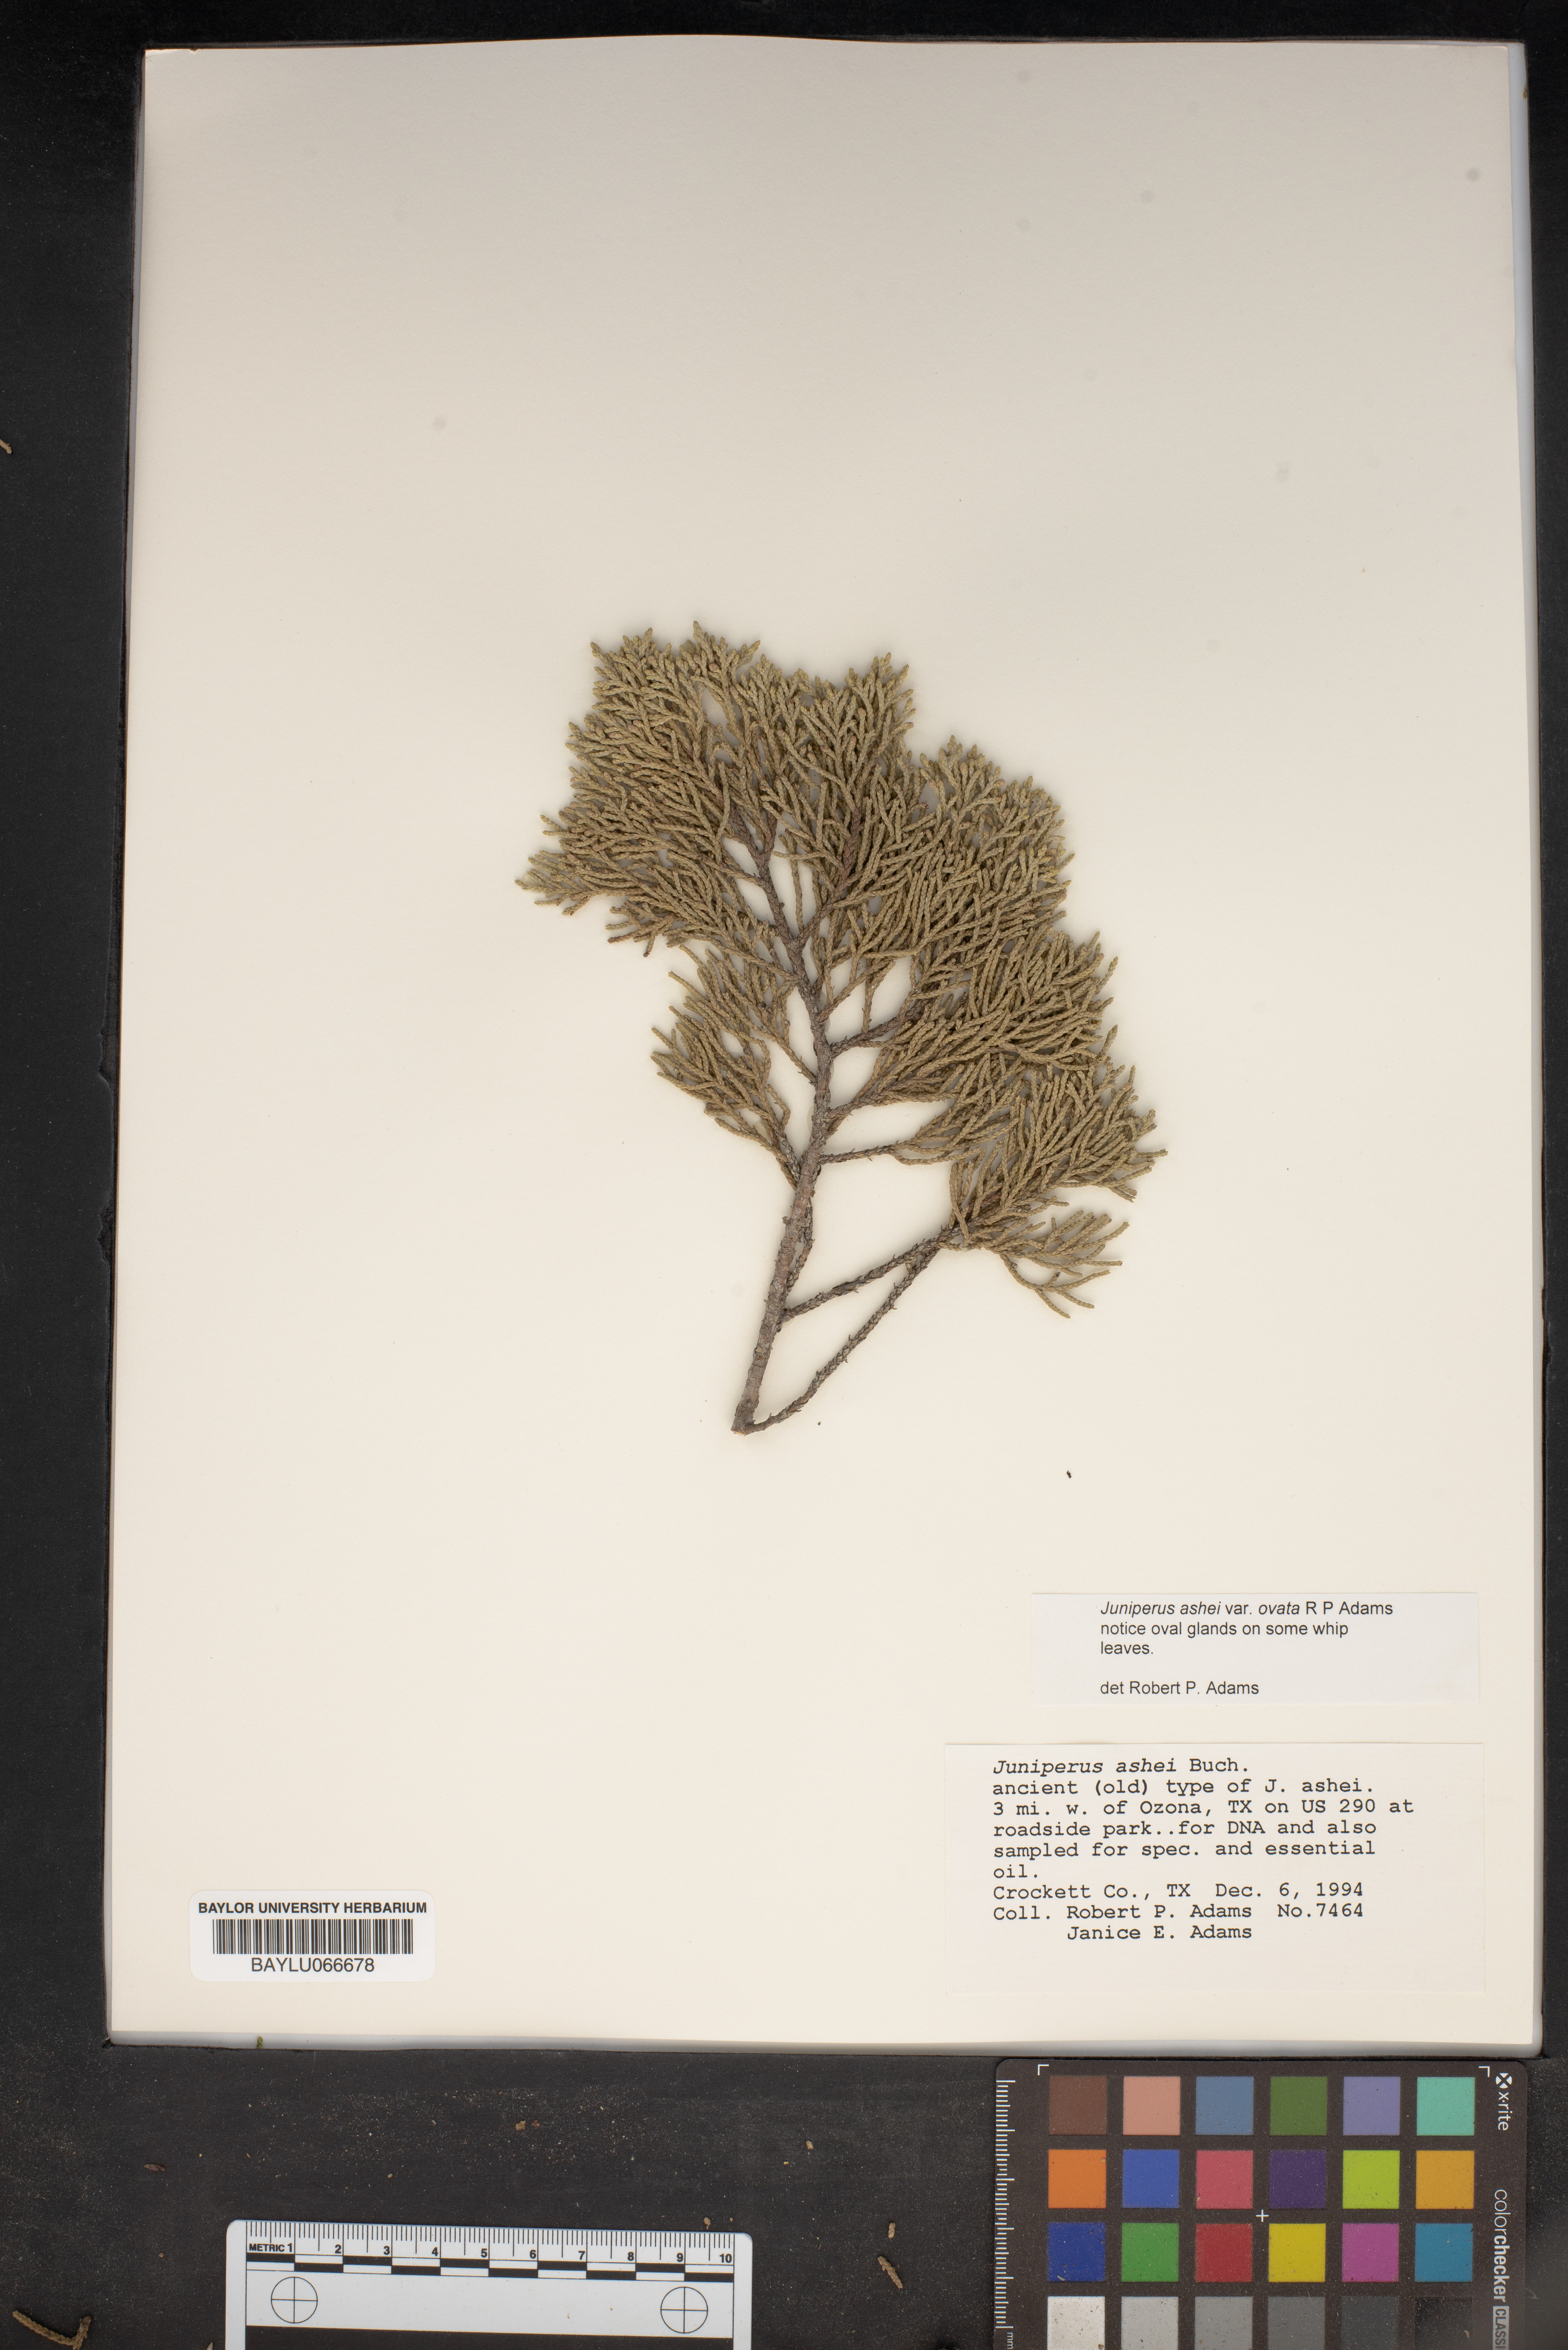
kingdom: Plantae
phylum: Tracheophyta
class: Pinopsida
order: Pinales
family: Cupressaceae
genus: Juniperus
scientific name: Juniperus ashei
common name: Mexican juniper
